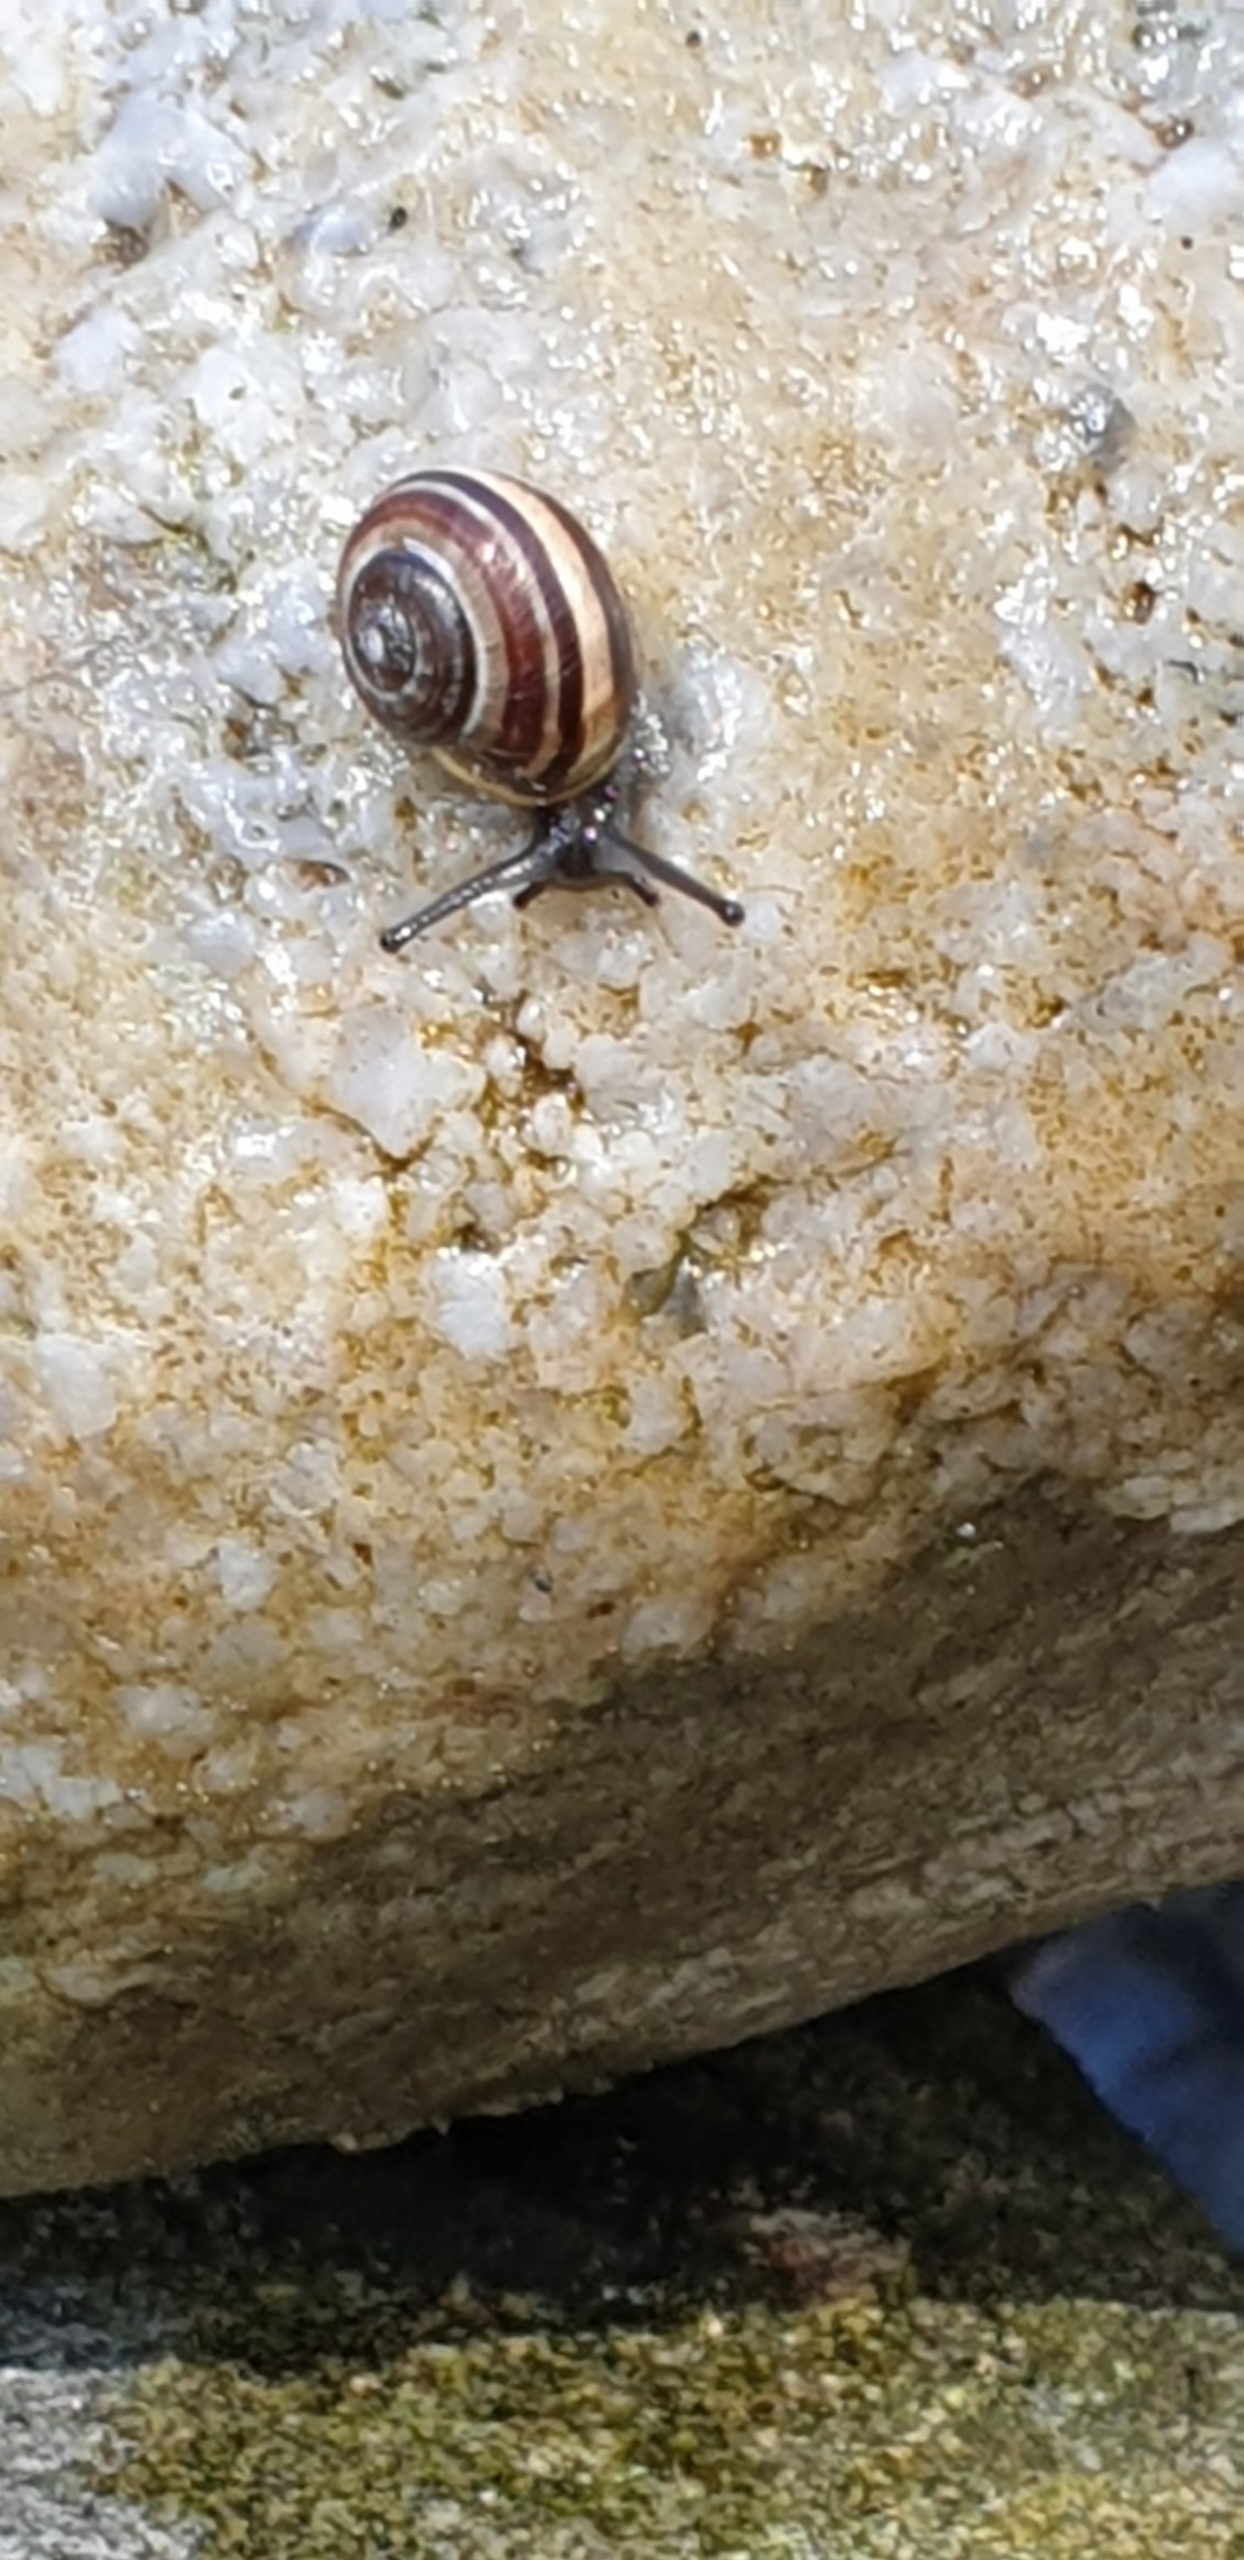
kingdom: Animalia
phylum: Mollusca
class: Gastropoda
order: Stylommatophora
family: Helicidae
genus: Cepaea
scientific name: Cepaea hortensis
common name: Havesnegl
